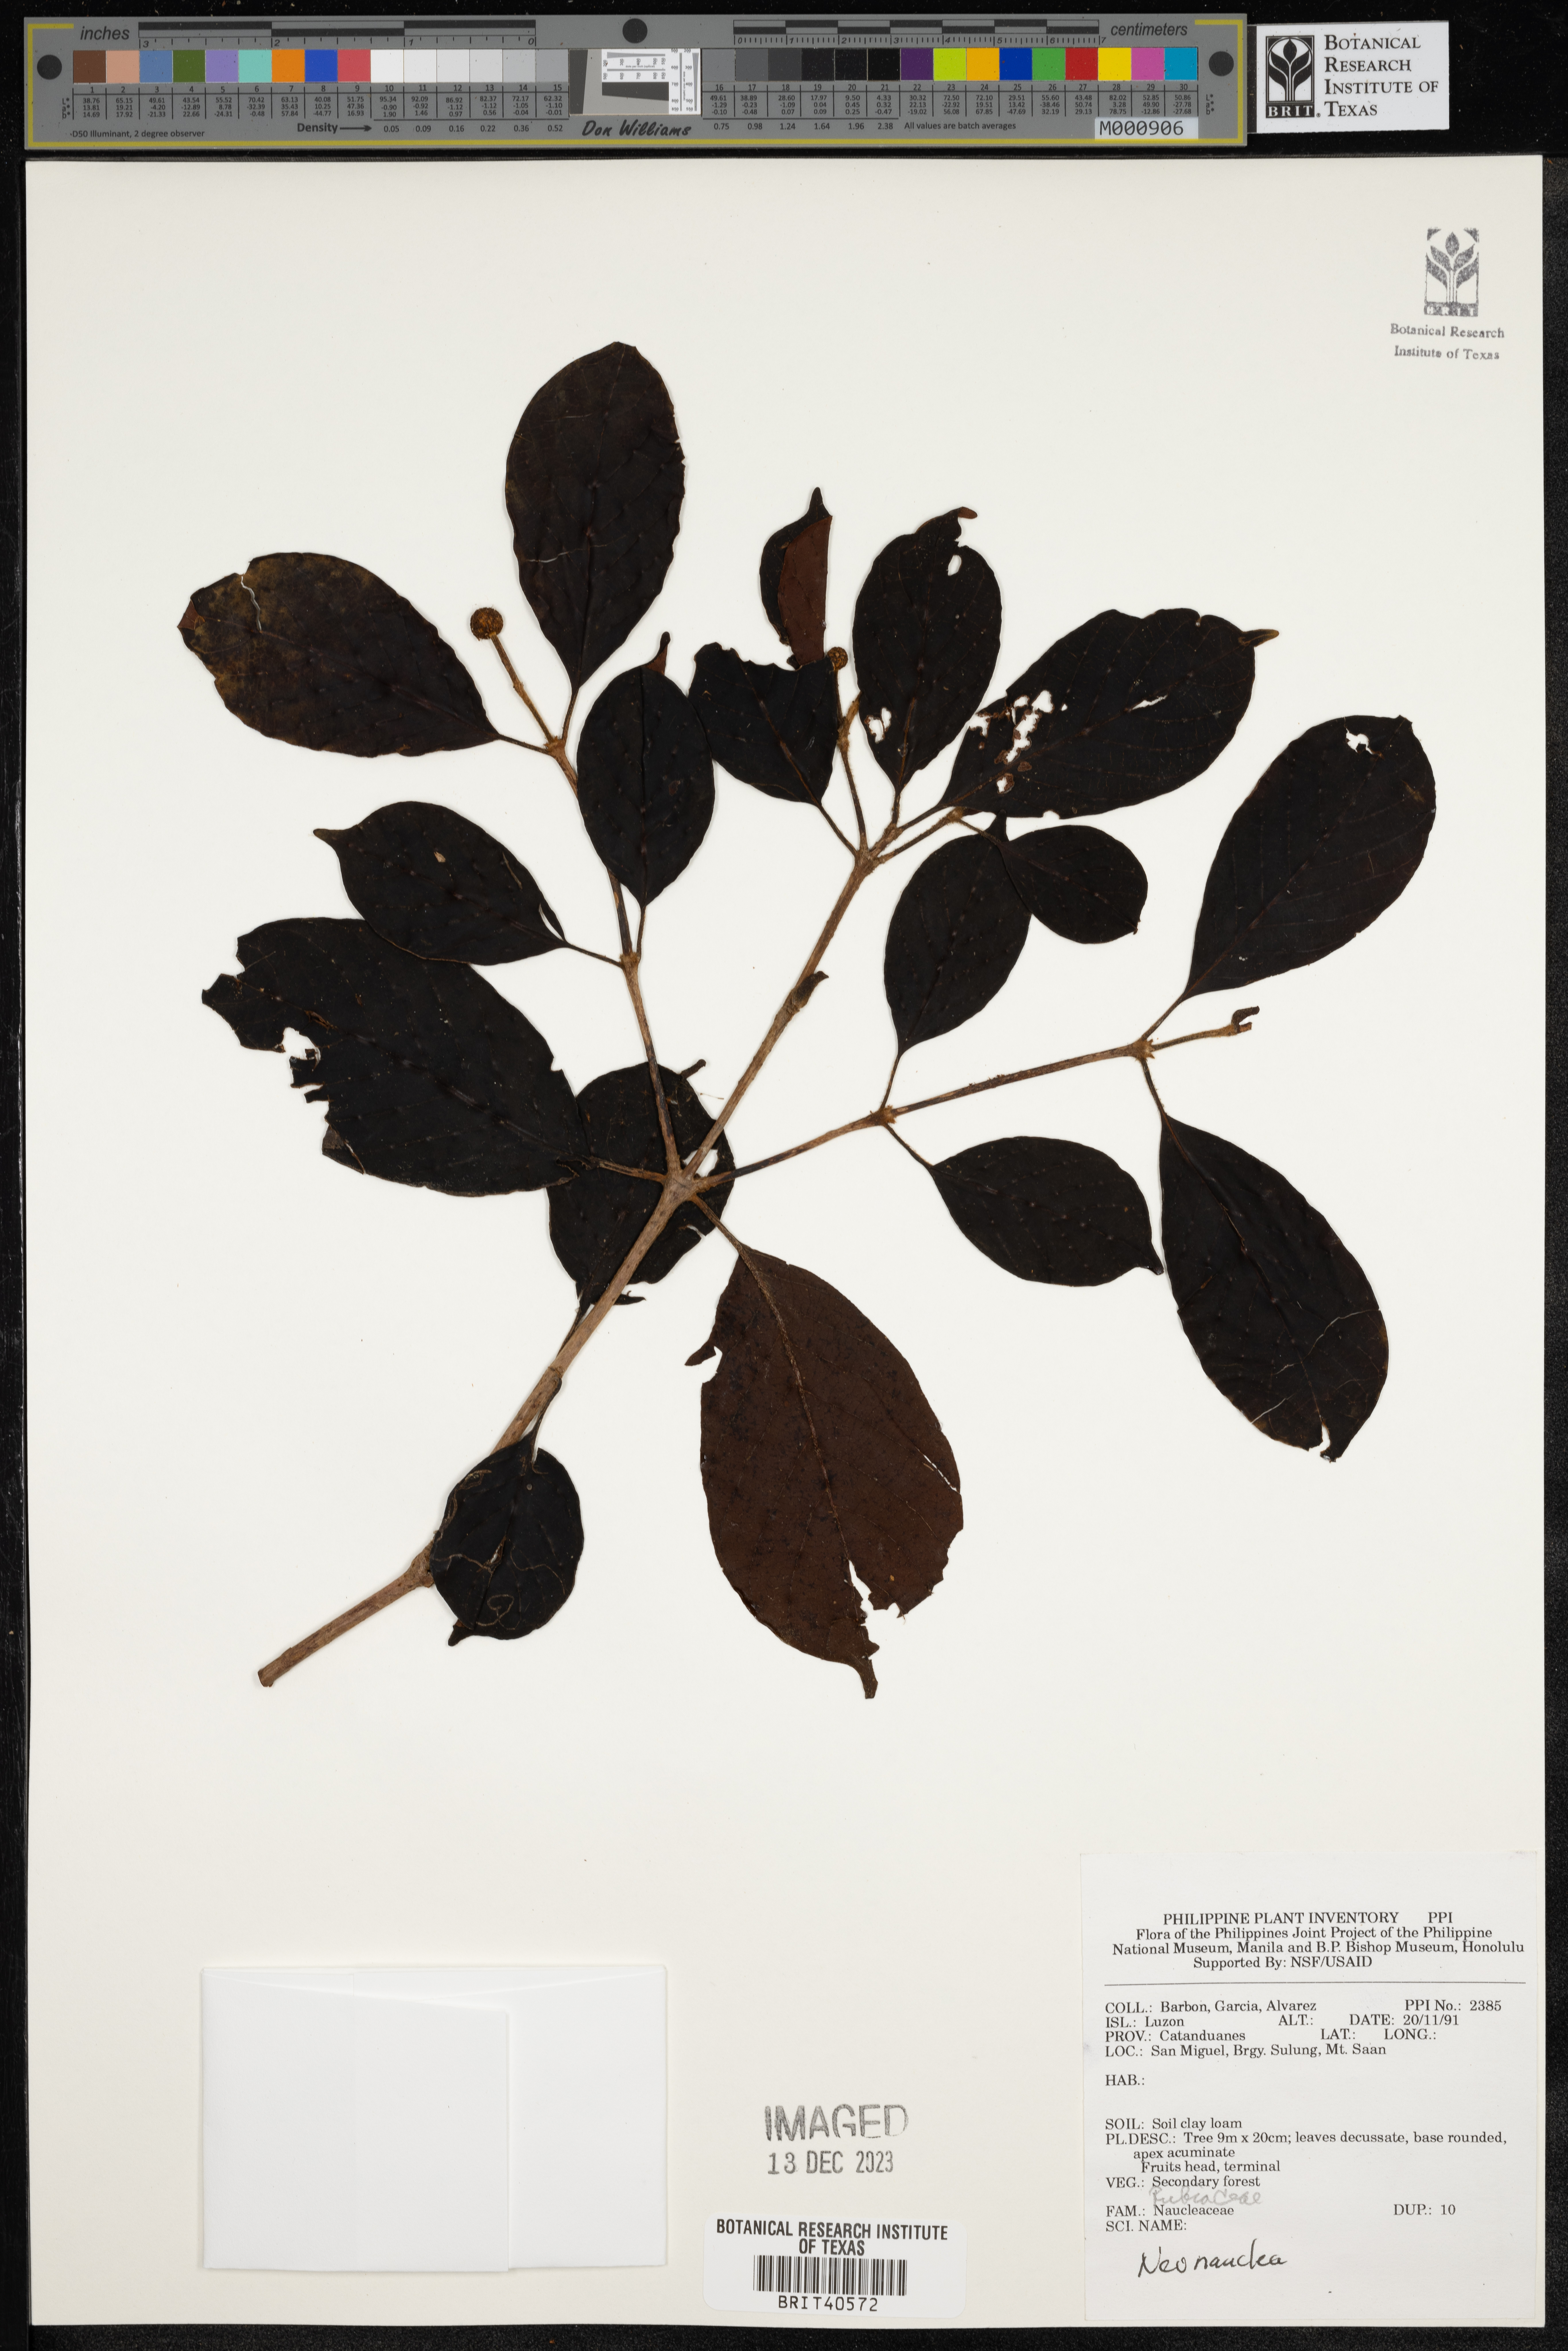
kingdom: Plantae
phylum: Tracheophyta
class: Magnoliopsida
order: Gentianales
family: Rubiaceae
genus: Neonauclea
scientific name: Neonauclea
